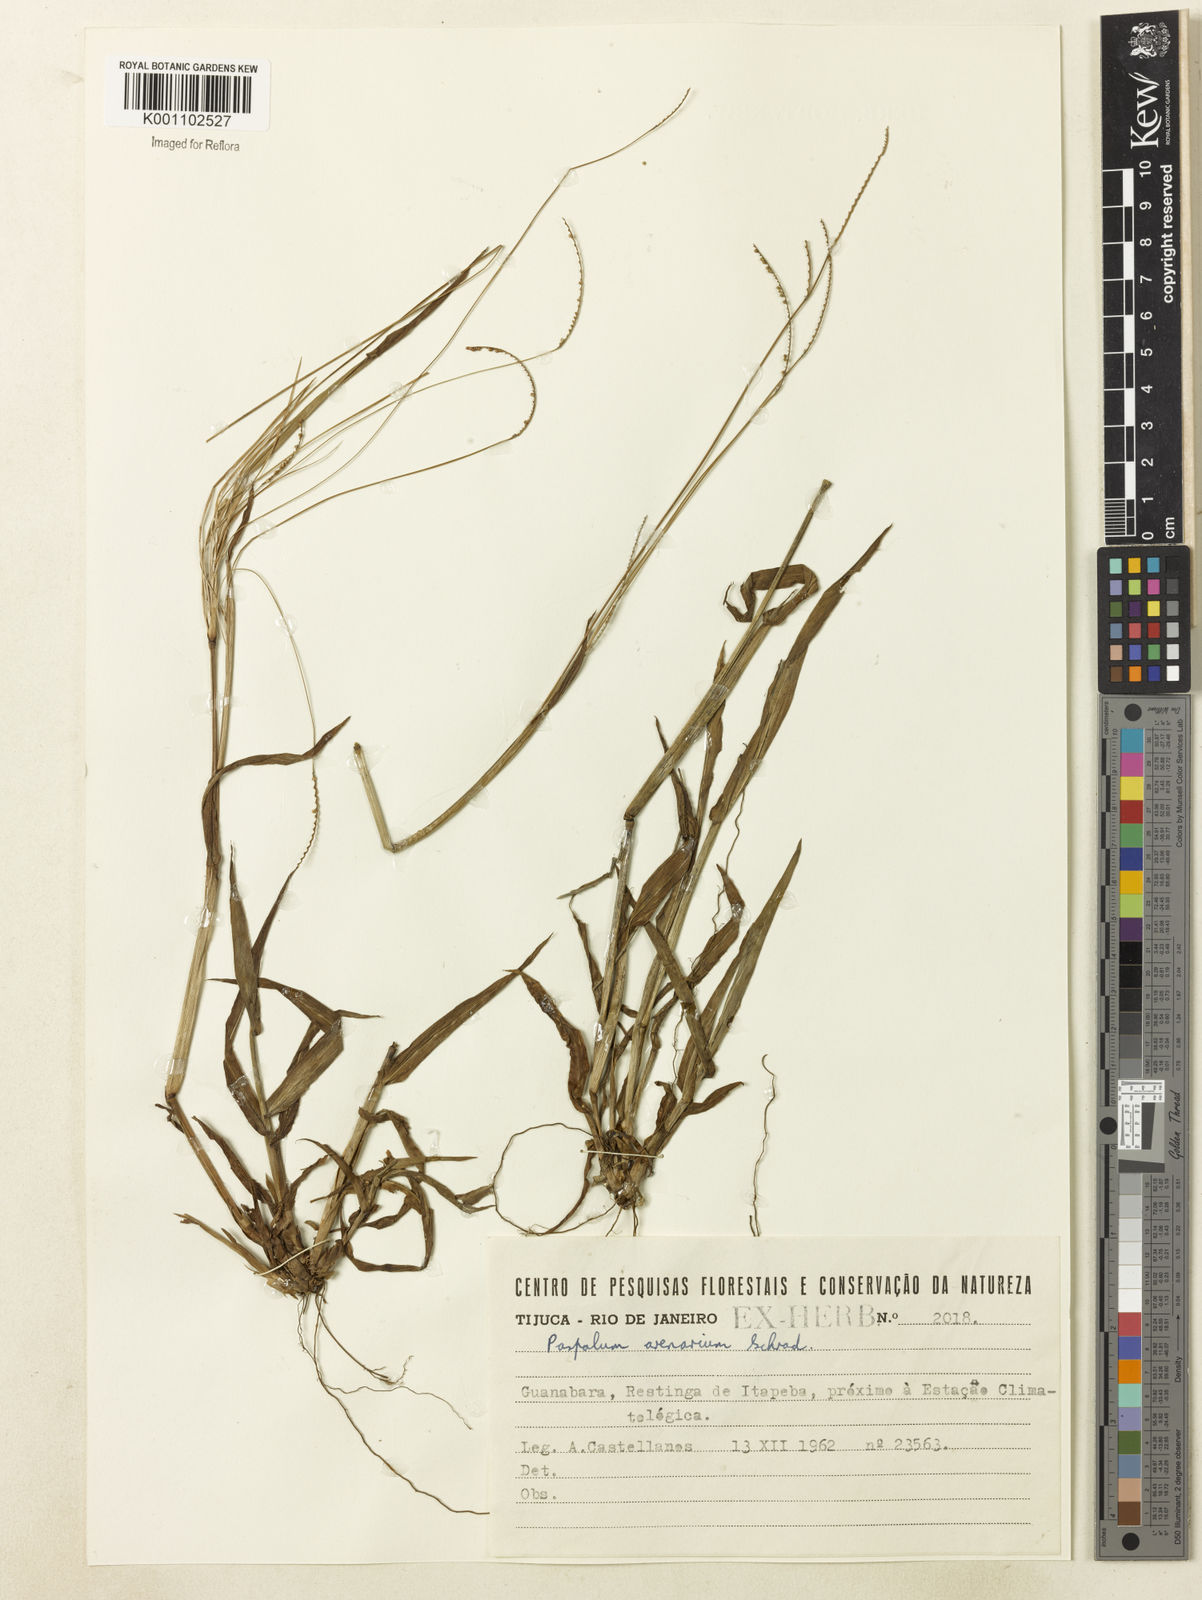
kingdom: Plantae
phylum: Tracheophyta
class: Liliopsida
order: Poales
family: Poaceae
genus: Paspalum
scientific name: Paspalum arenarium
